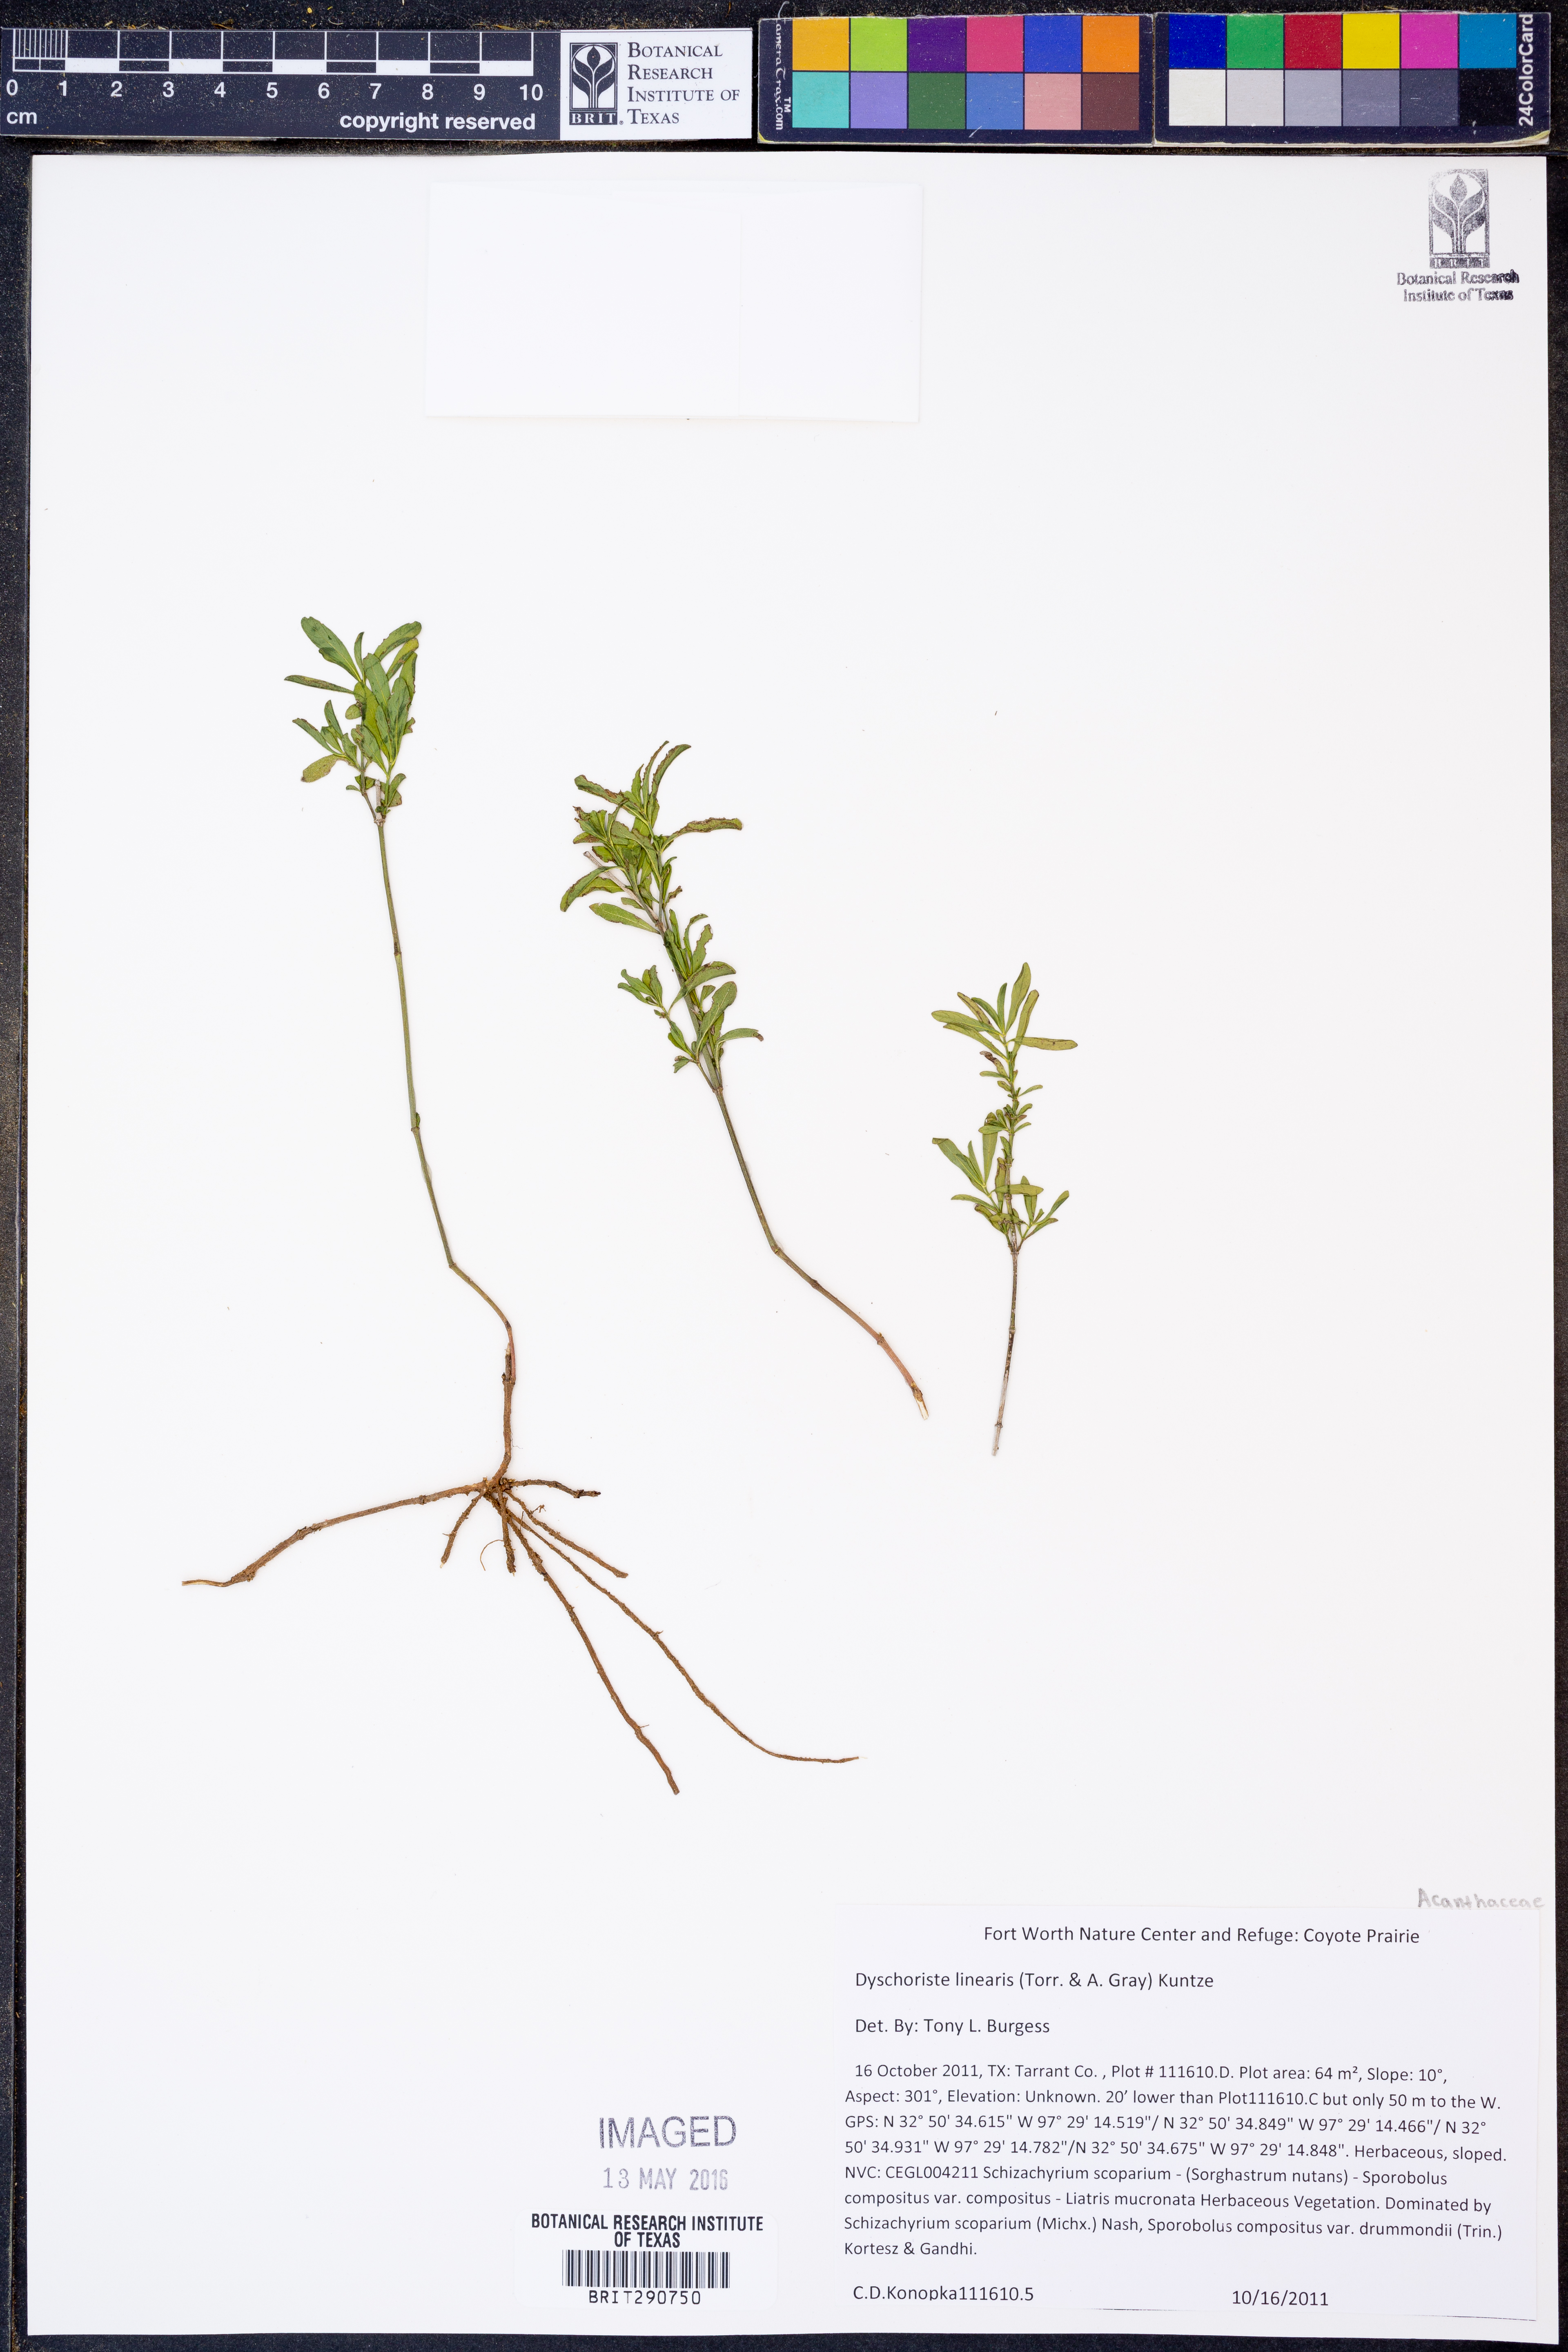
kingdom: Plantae
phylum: Tracheophyta
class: Magnoliopsida
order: Lamiales
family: Acanthaceae
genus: Dyschoriste
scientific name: Dyschoriste linearis
